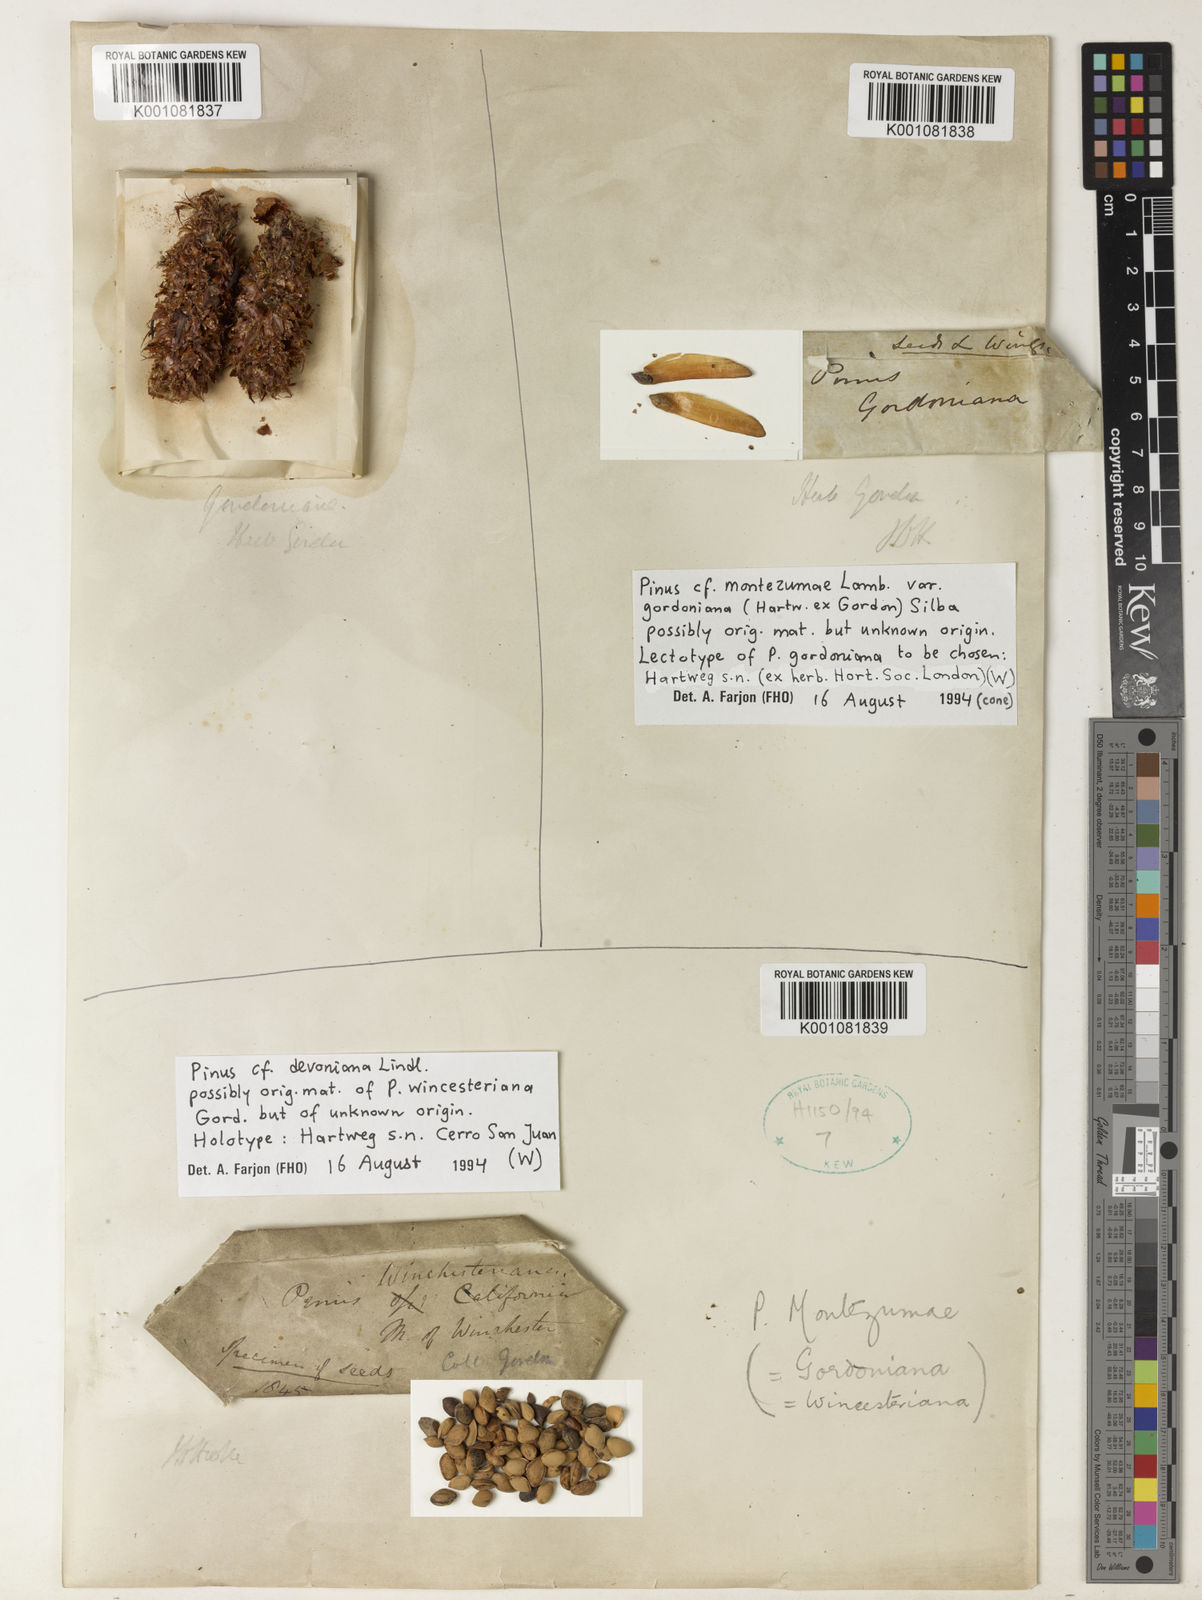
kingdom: Plantae
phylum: Tracheophyta
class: Pinopsida
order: Pinales
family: Pinaceae
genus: Pinus
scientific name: Pinus hartwegii
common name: Hartweg's pine
